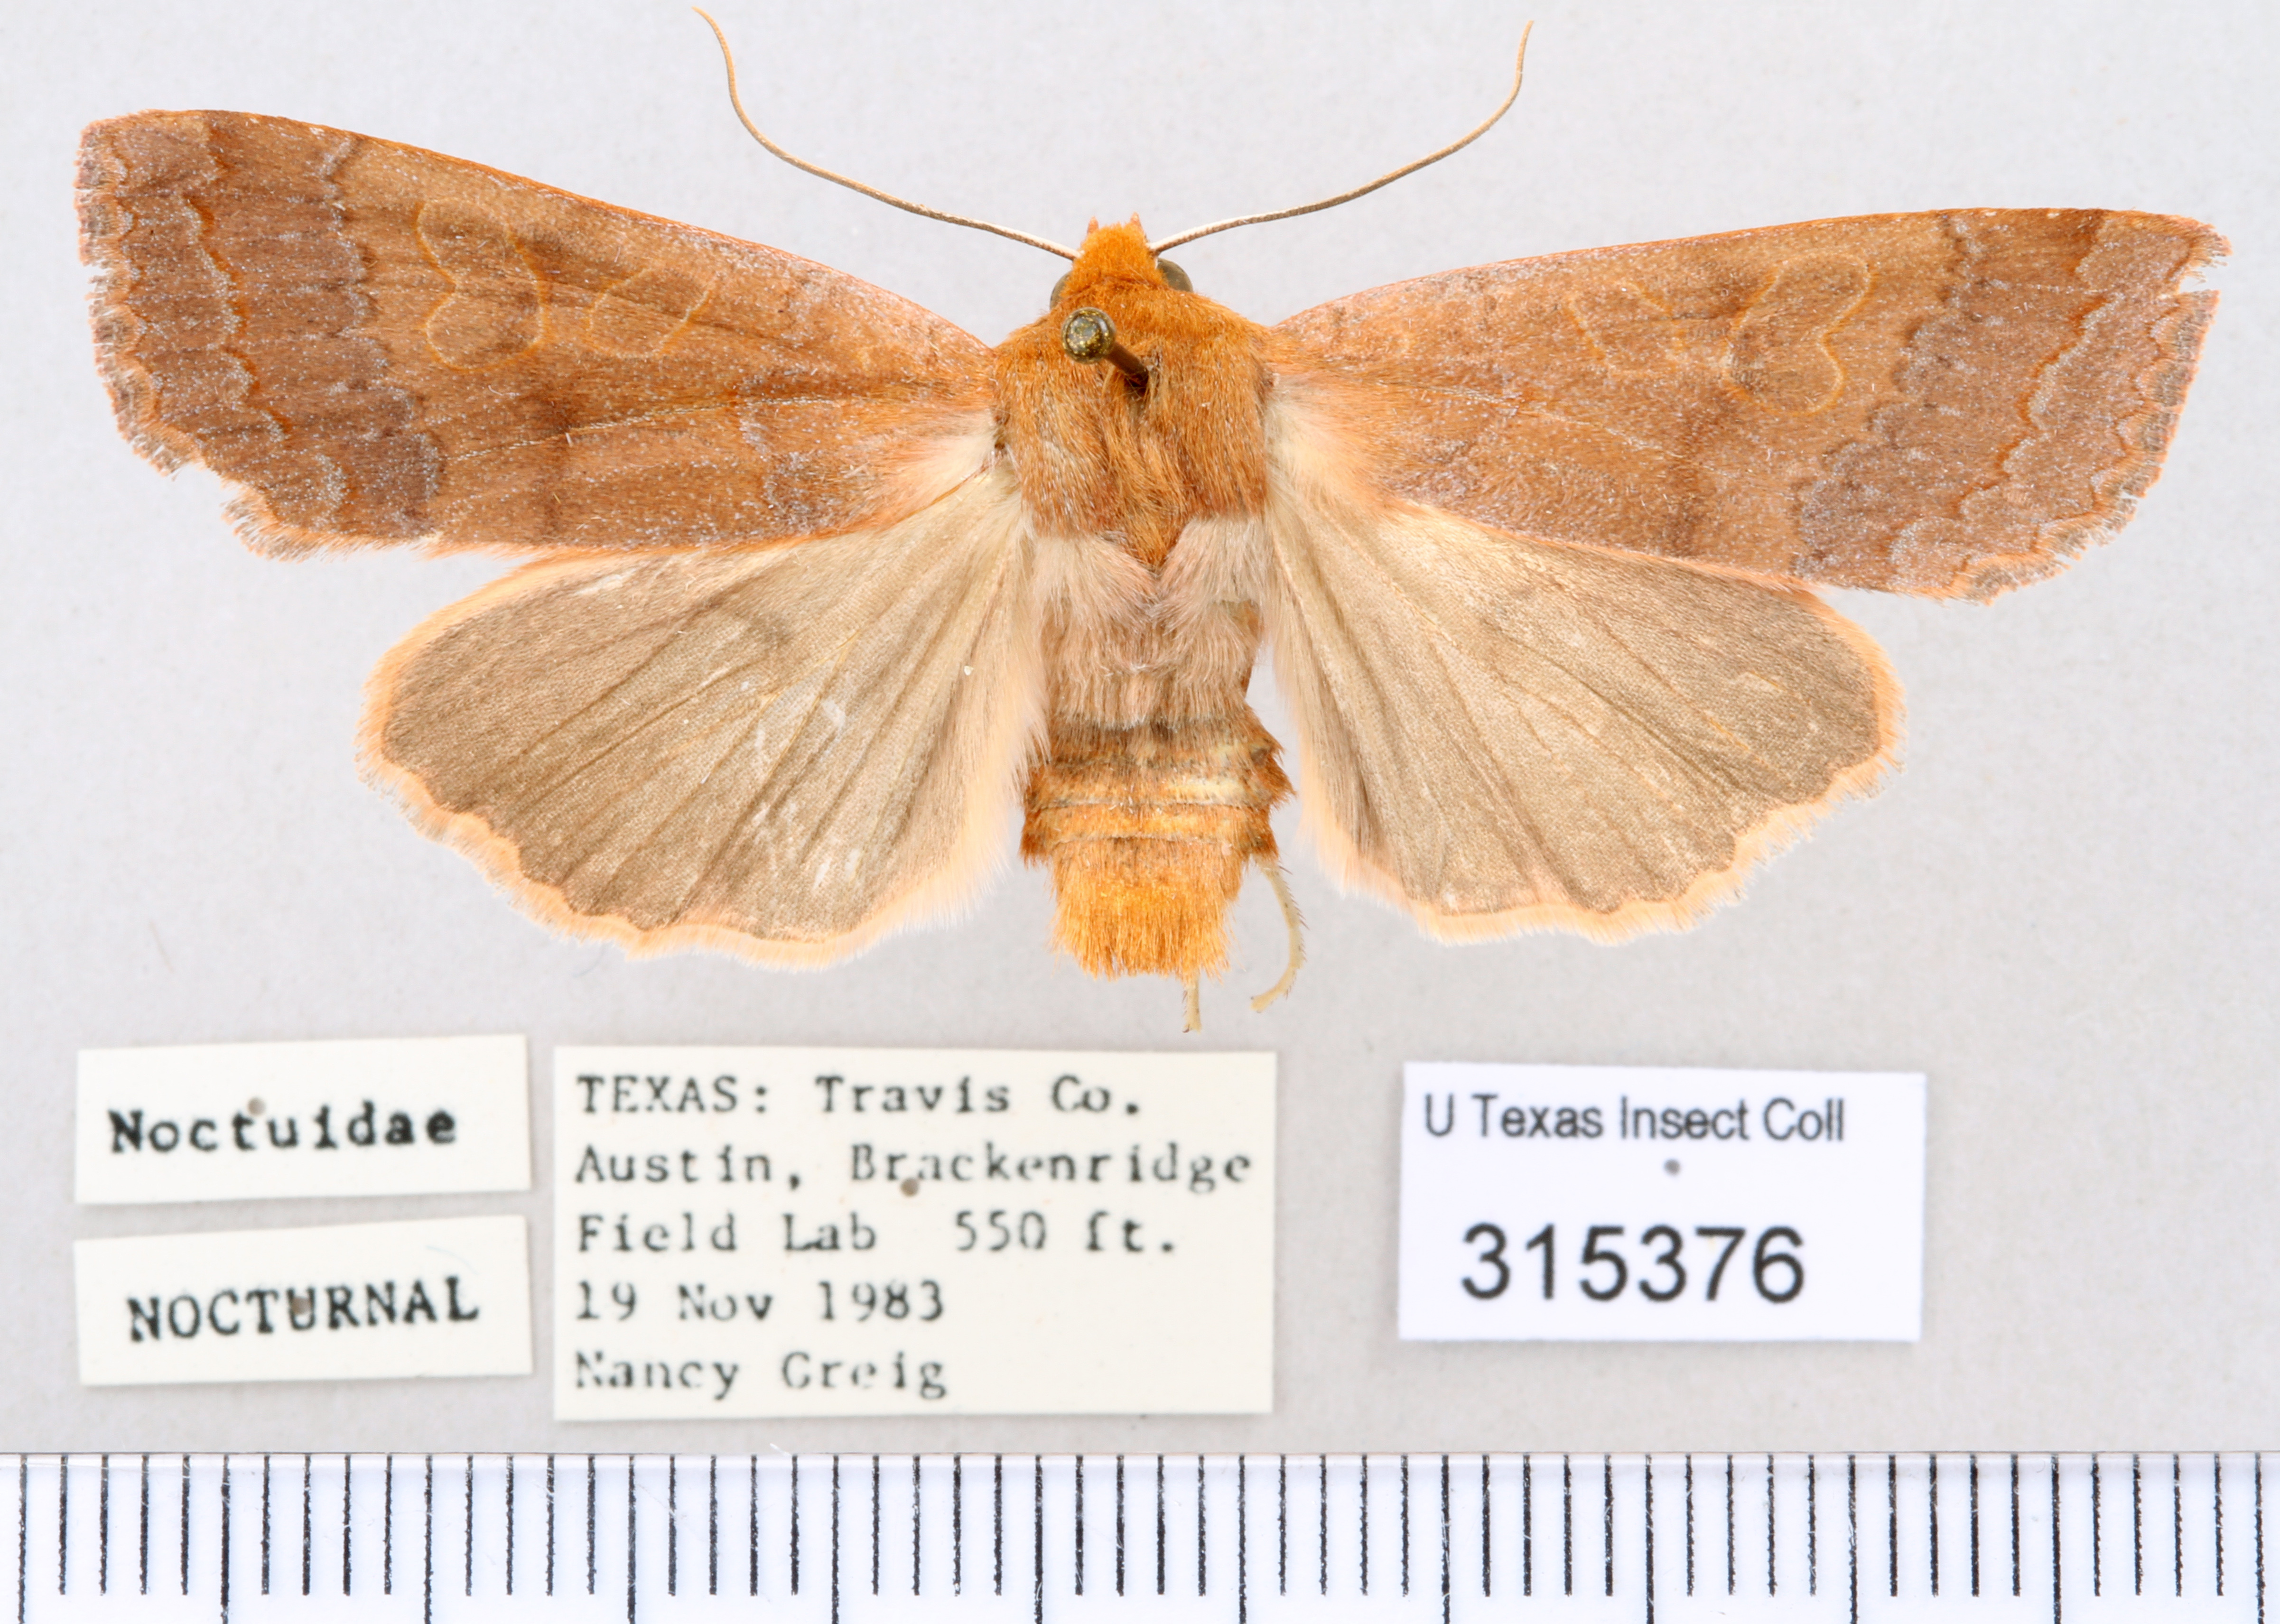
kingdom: Animalia
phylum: Arthropoda
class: Insecta
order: Lepidoptera
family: Noctuidae
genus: Metaxaglaea
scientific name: Metaxaglaea viatica
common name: Roadside sallow
